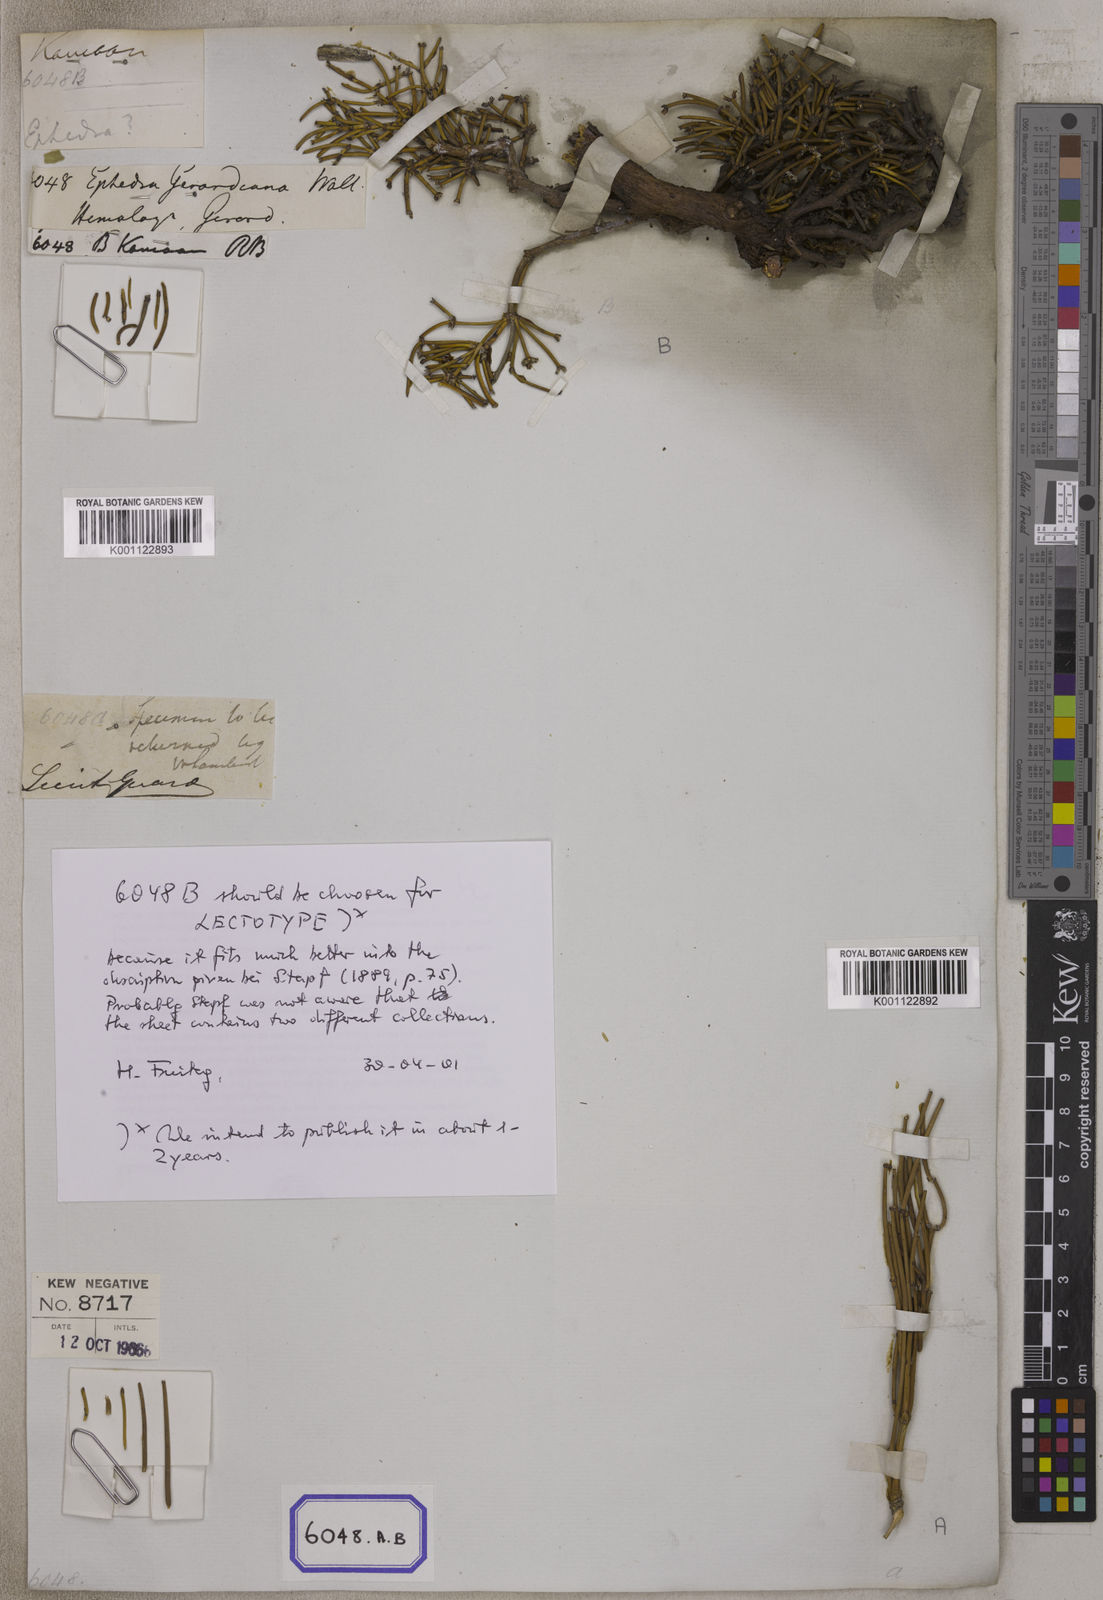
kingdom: Plantae
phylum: Tracheophyta
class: Gnetopsida
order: Ephedrales
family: Ephedraceae
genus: Ephedra
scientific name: Ephedra
